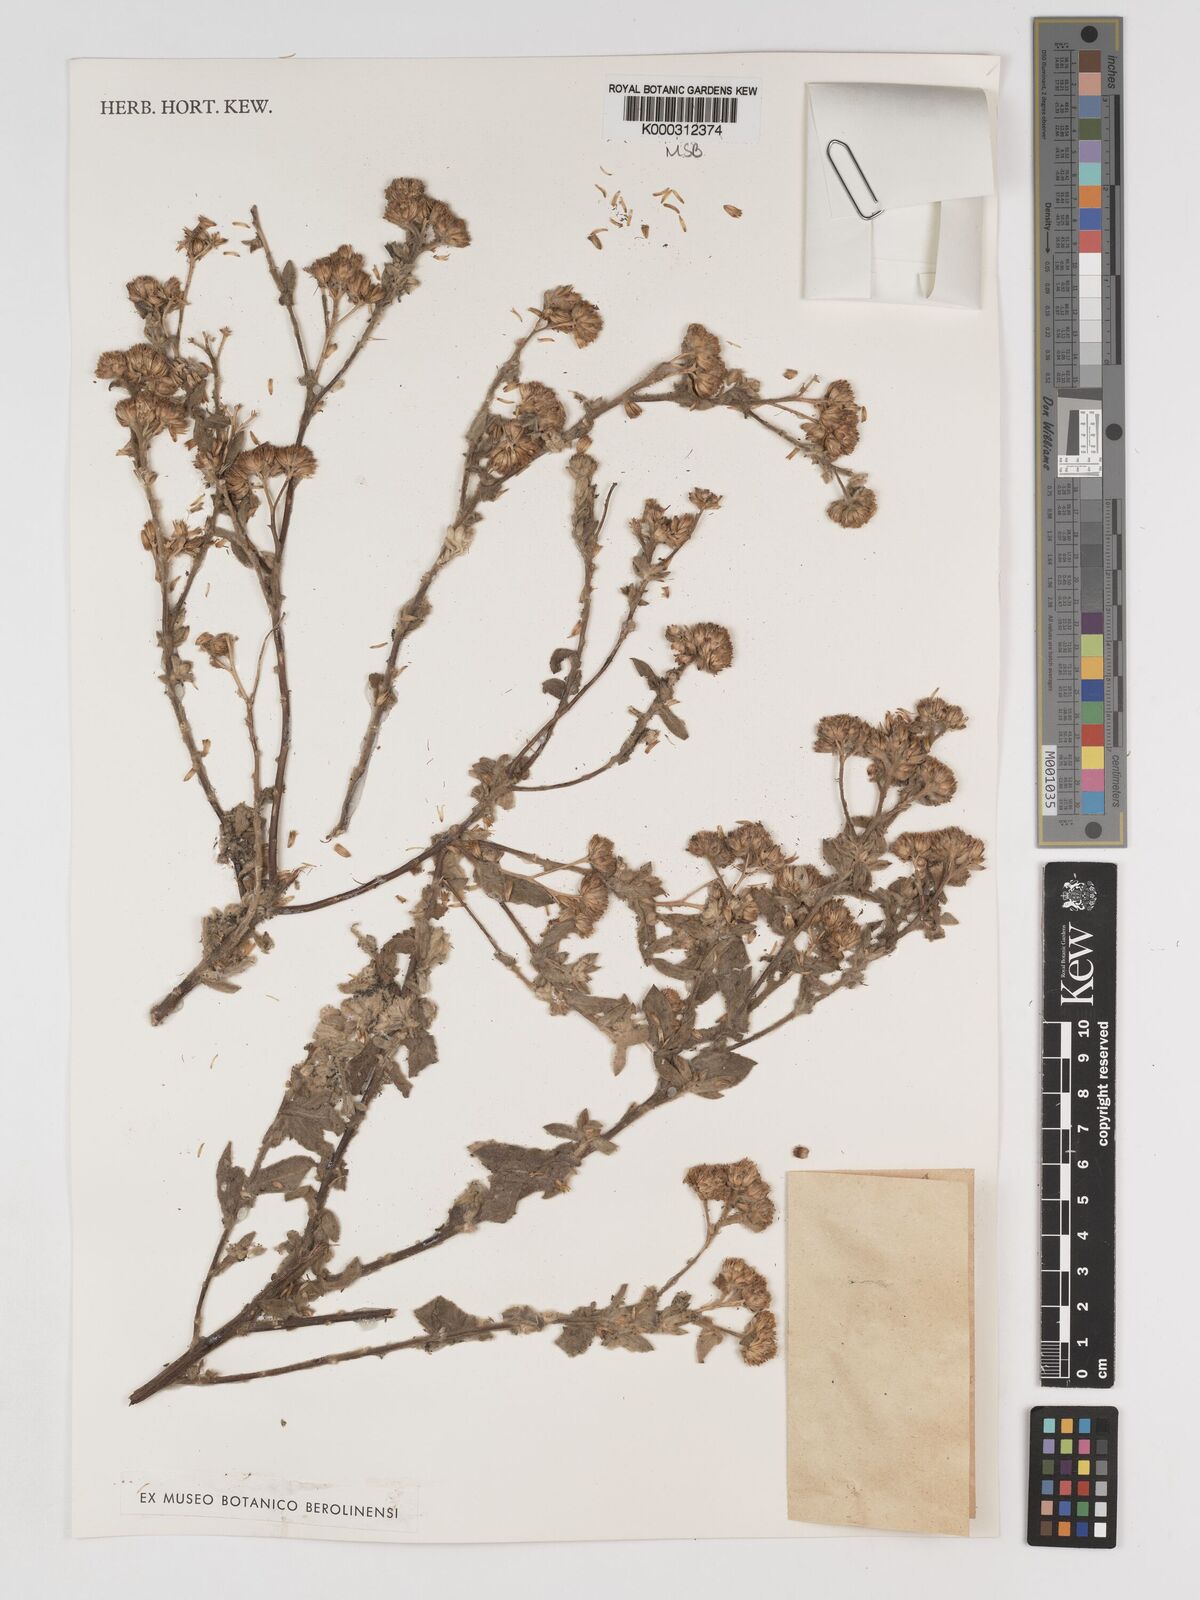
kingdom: Plantae
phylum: Tracheophyta
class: Magnoliopsida
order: Asterales
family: Asteraceae
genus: Triplocephalum
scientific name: Triplocephalum holstii
